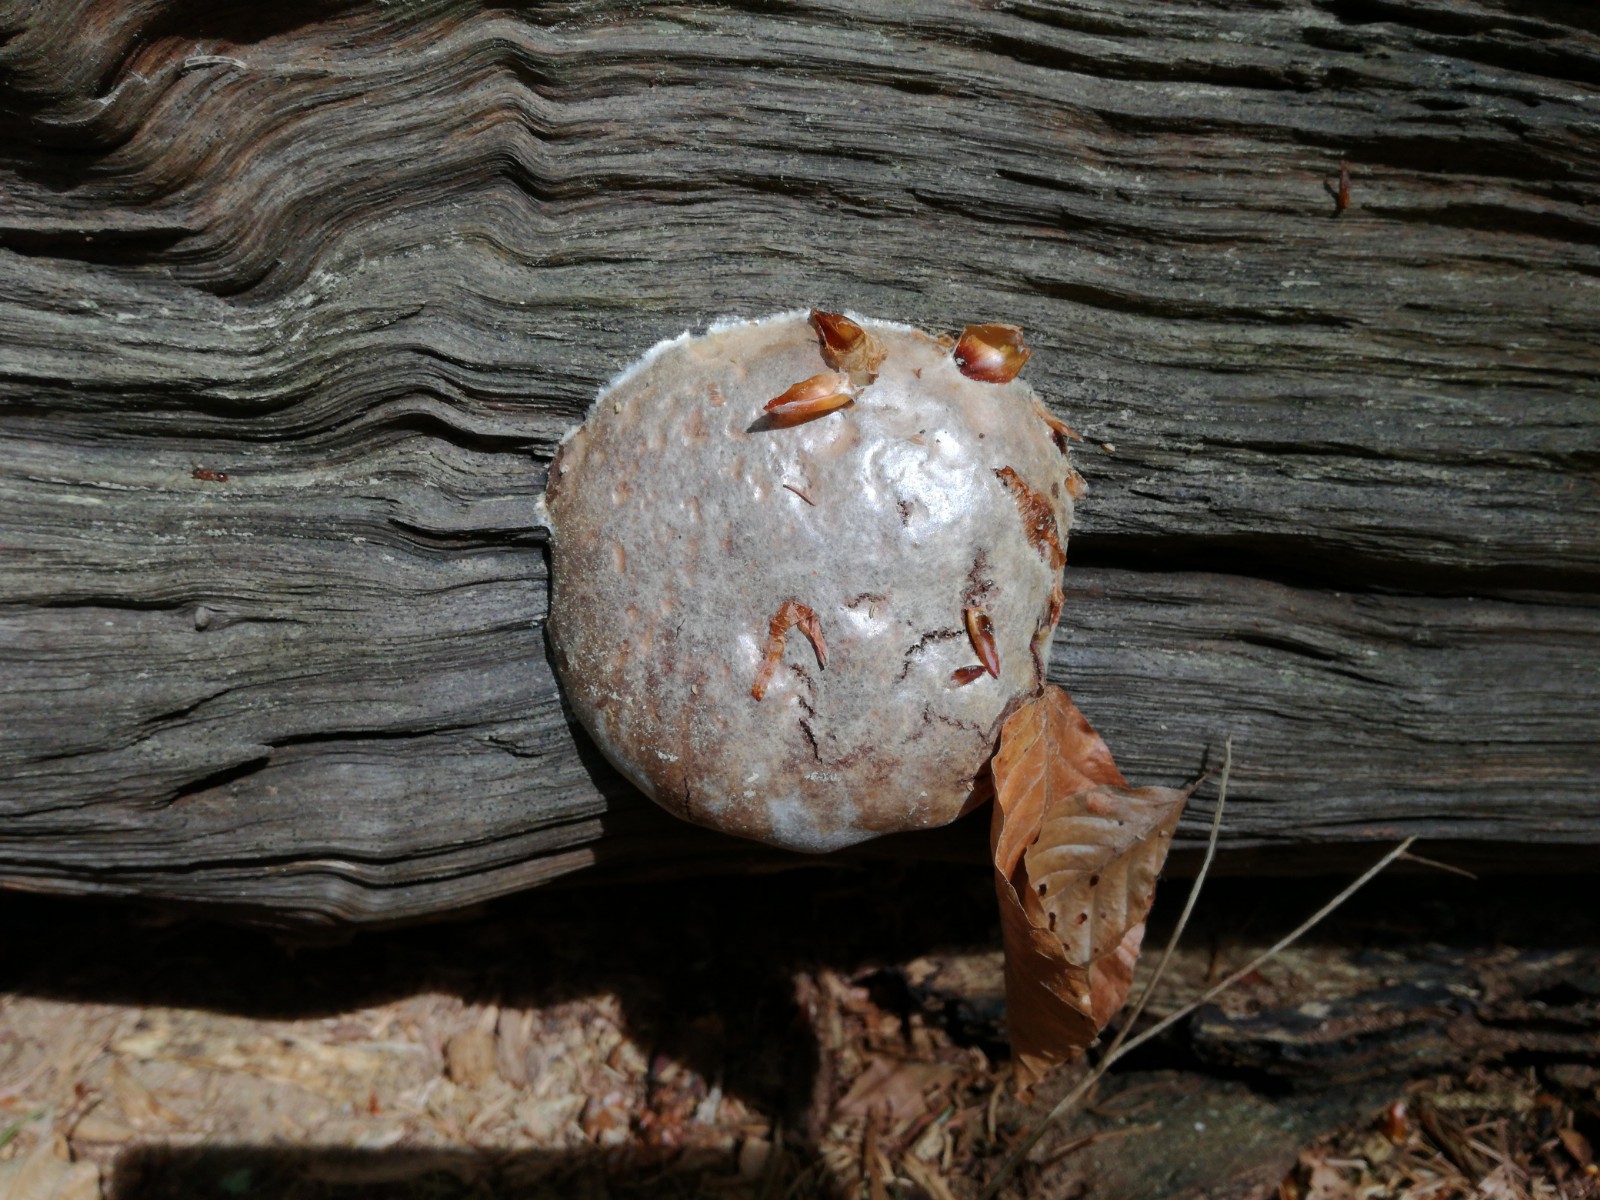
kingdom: Protozoa
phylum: Mycetozoa
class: Myxomycetes
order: Cribrariales
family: Tubiferaceae
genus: Reticularia
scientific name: Reticularia lycoperdon
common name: skinnende støvpude
